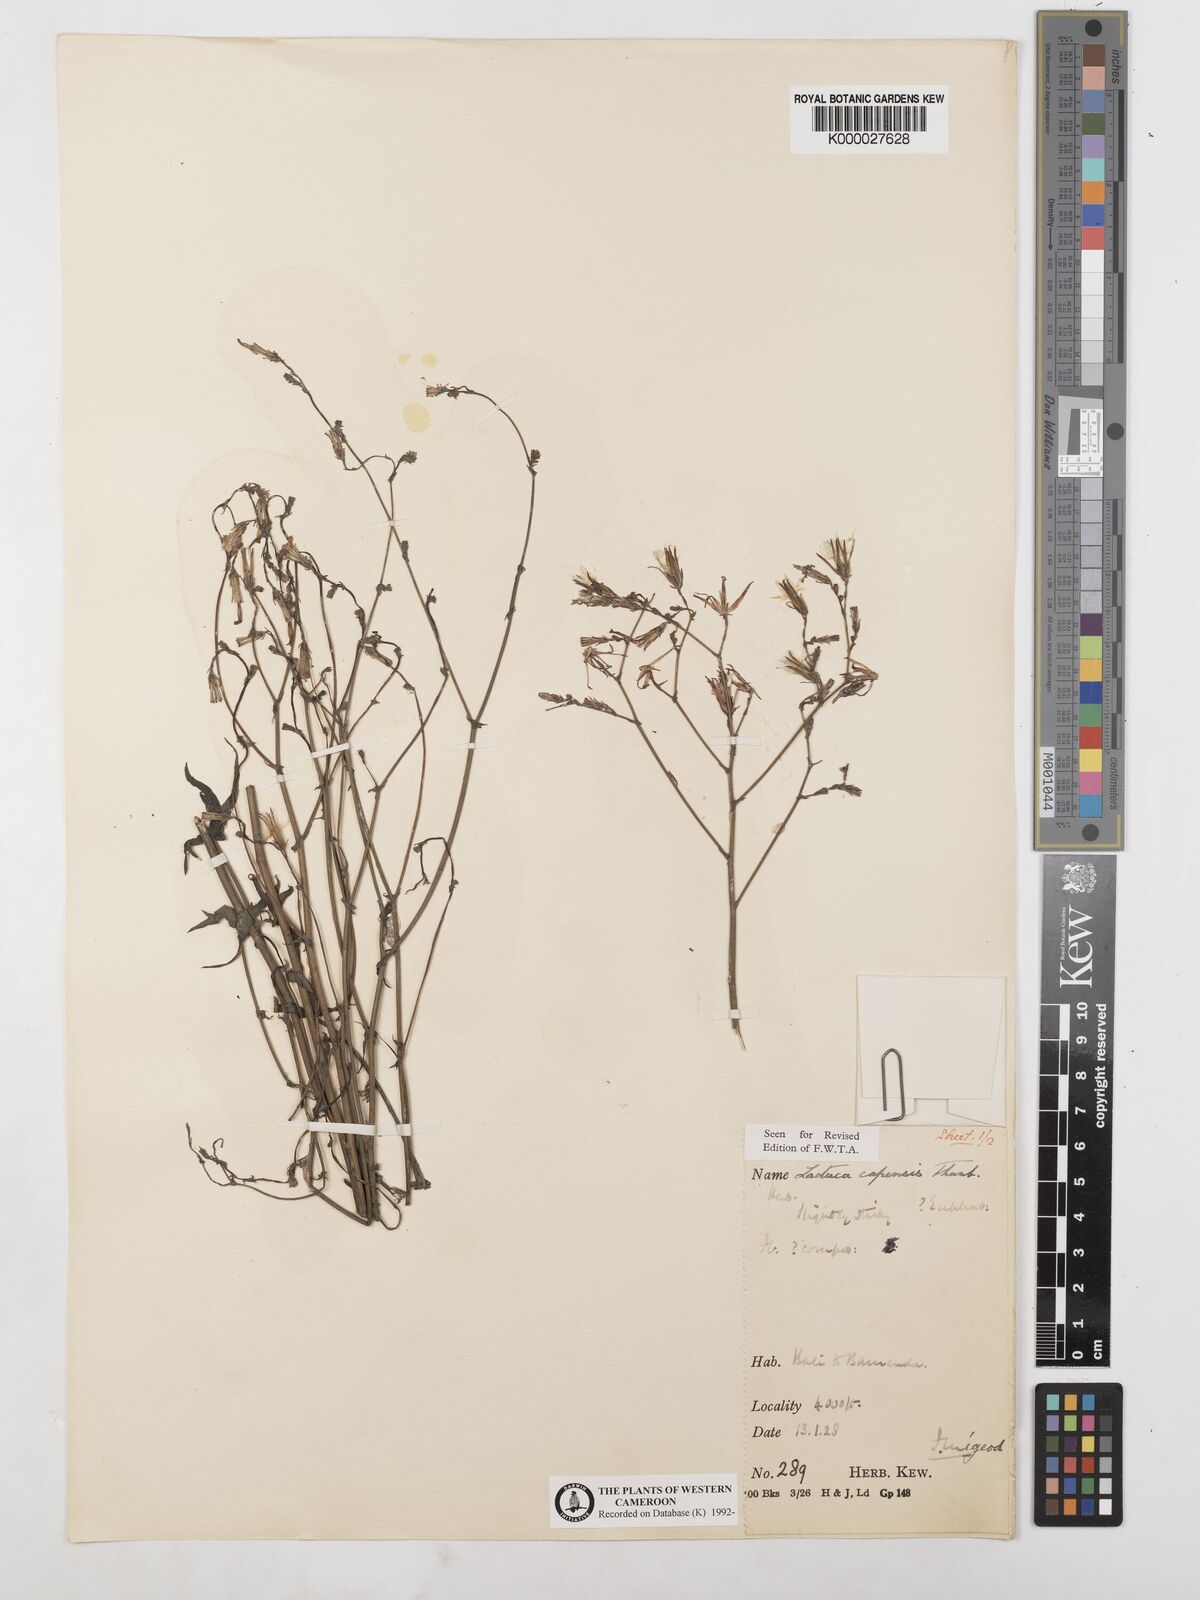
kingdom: Plantae
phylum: Tracheophyta
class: Magnoliopsida
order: Asterales
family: Asteraceae
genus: Lactuca
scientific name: Lactuca inermis
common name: Wild lettuce
